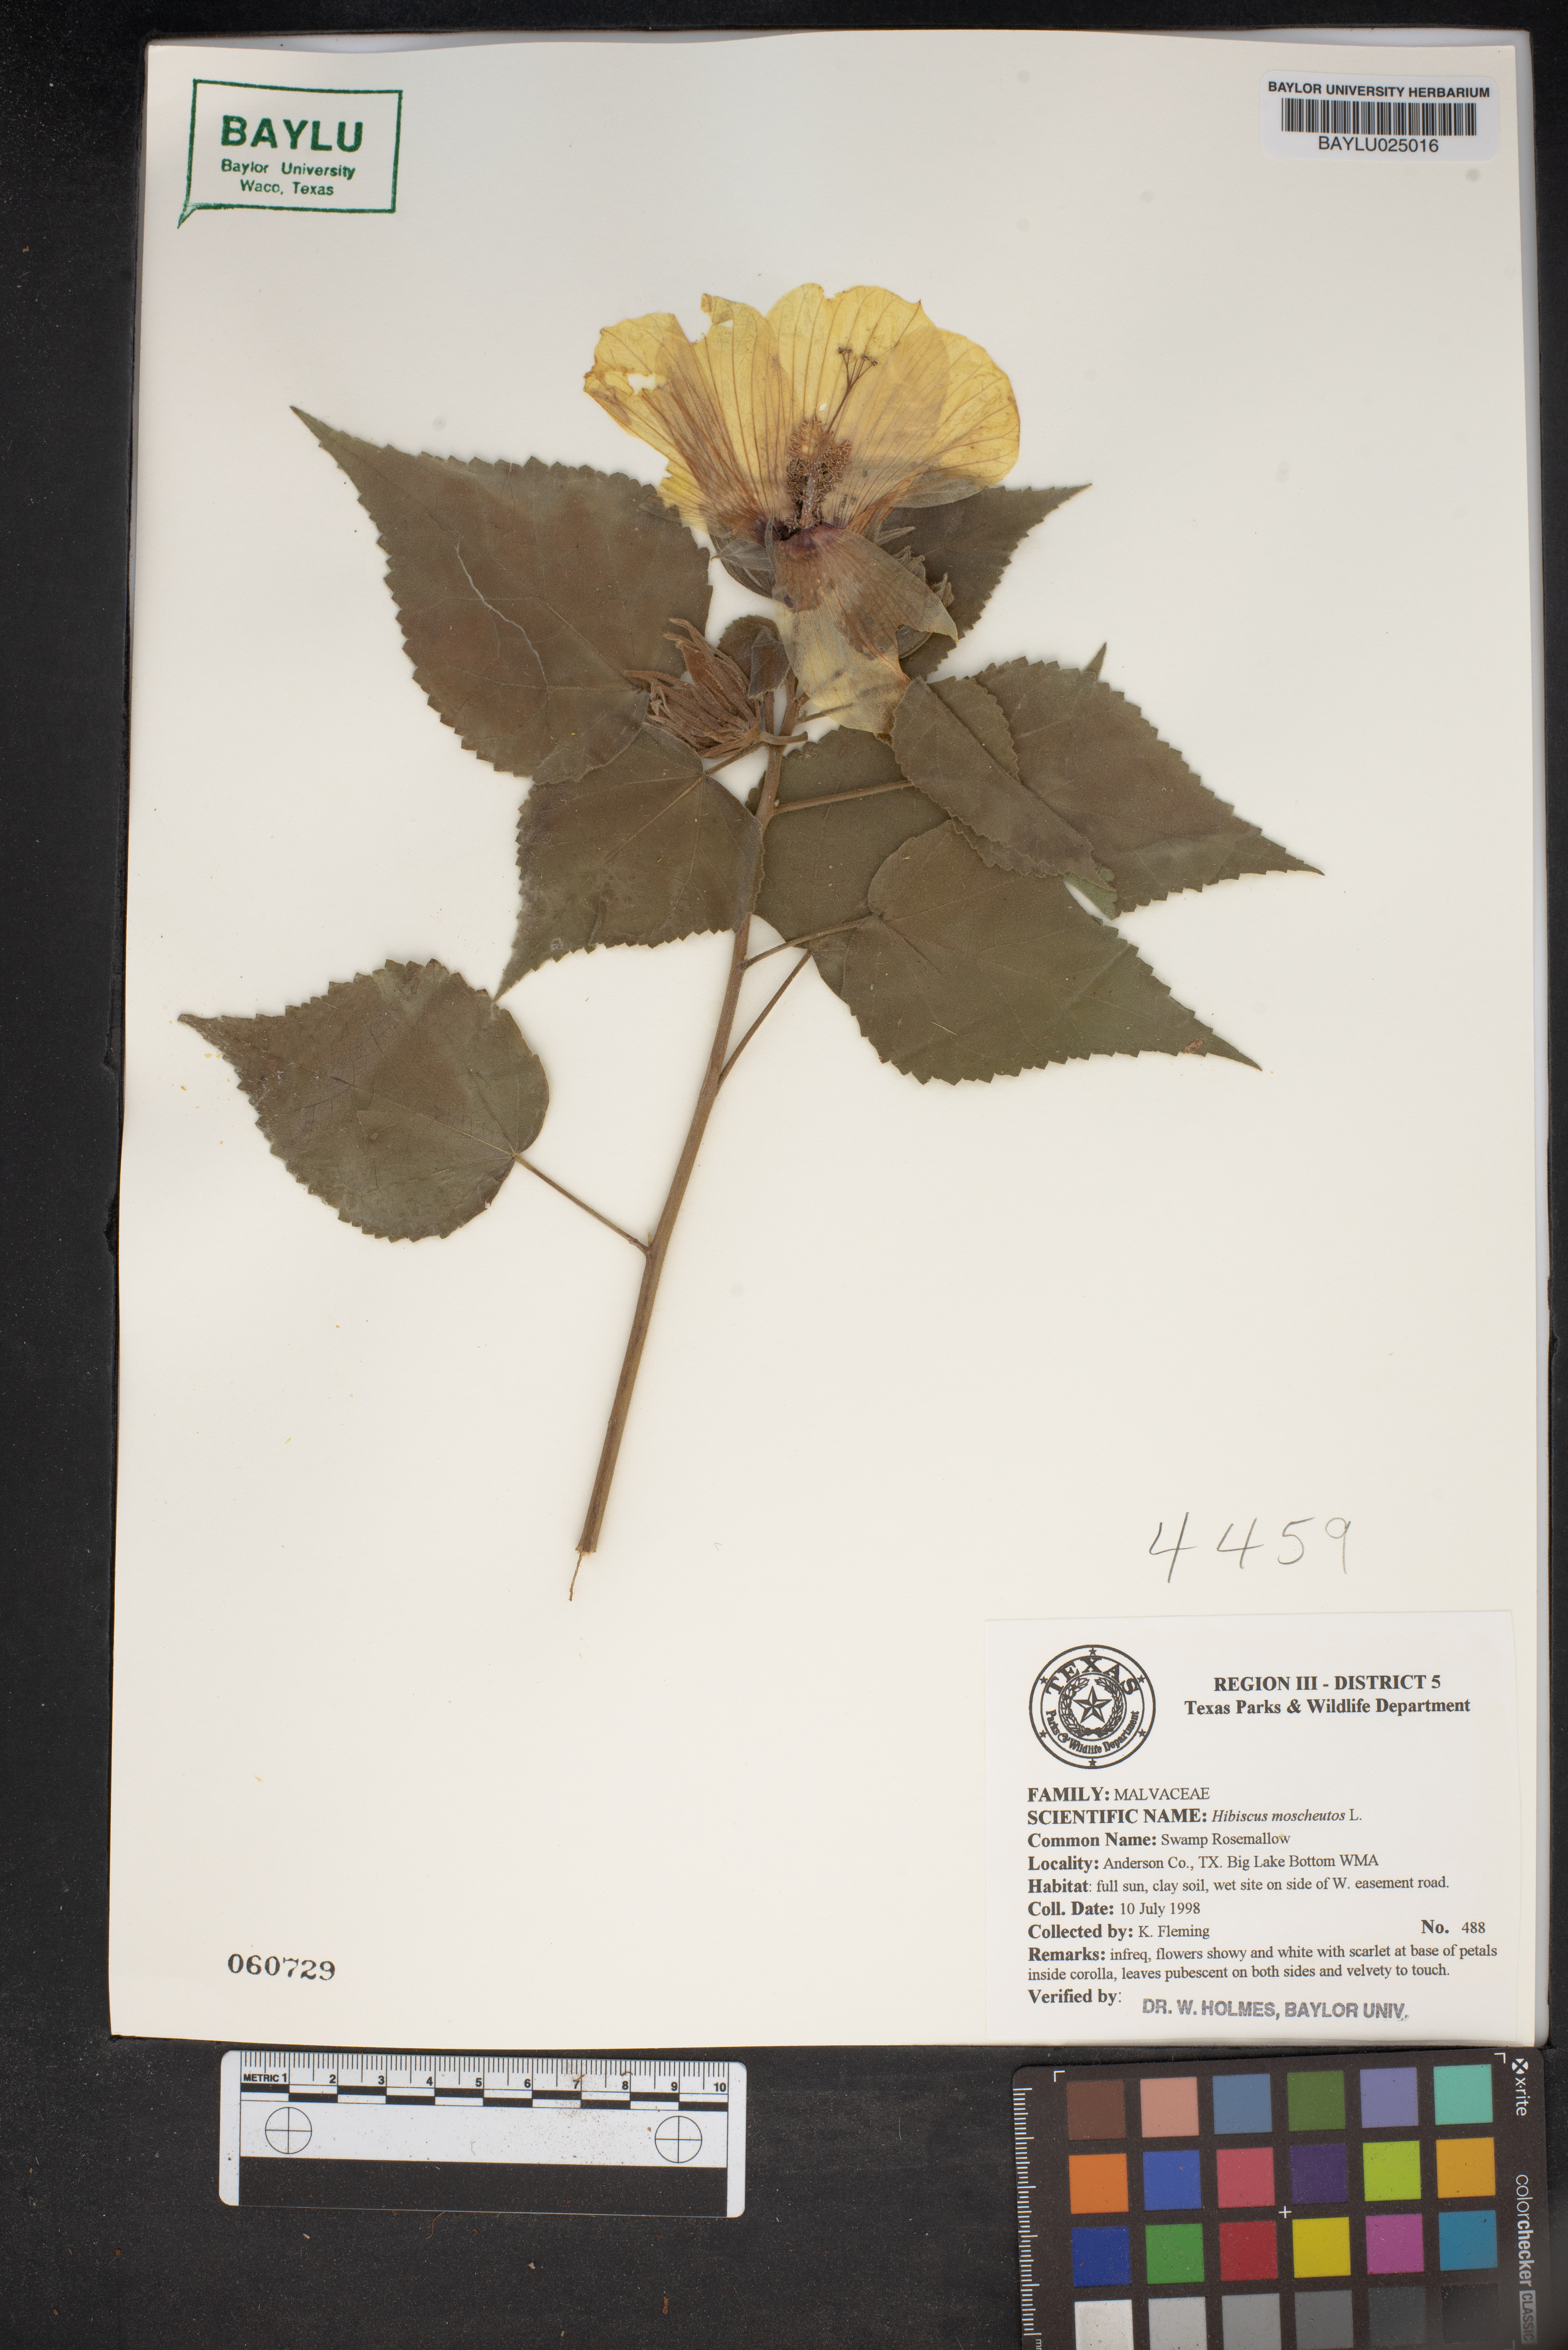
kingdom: Plantae
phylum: Tracheophyta
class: Magnoliopsida
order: Malvales
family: Malvaceae
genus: Hibiscus
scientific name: Hibiscus moscheutos
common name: Common rose-mallow
